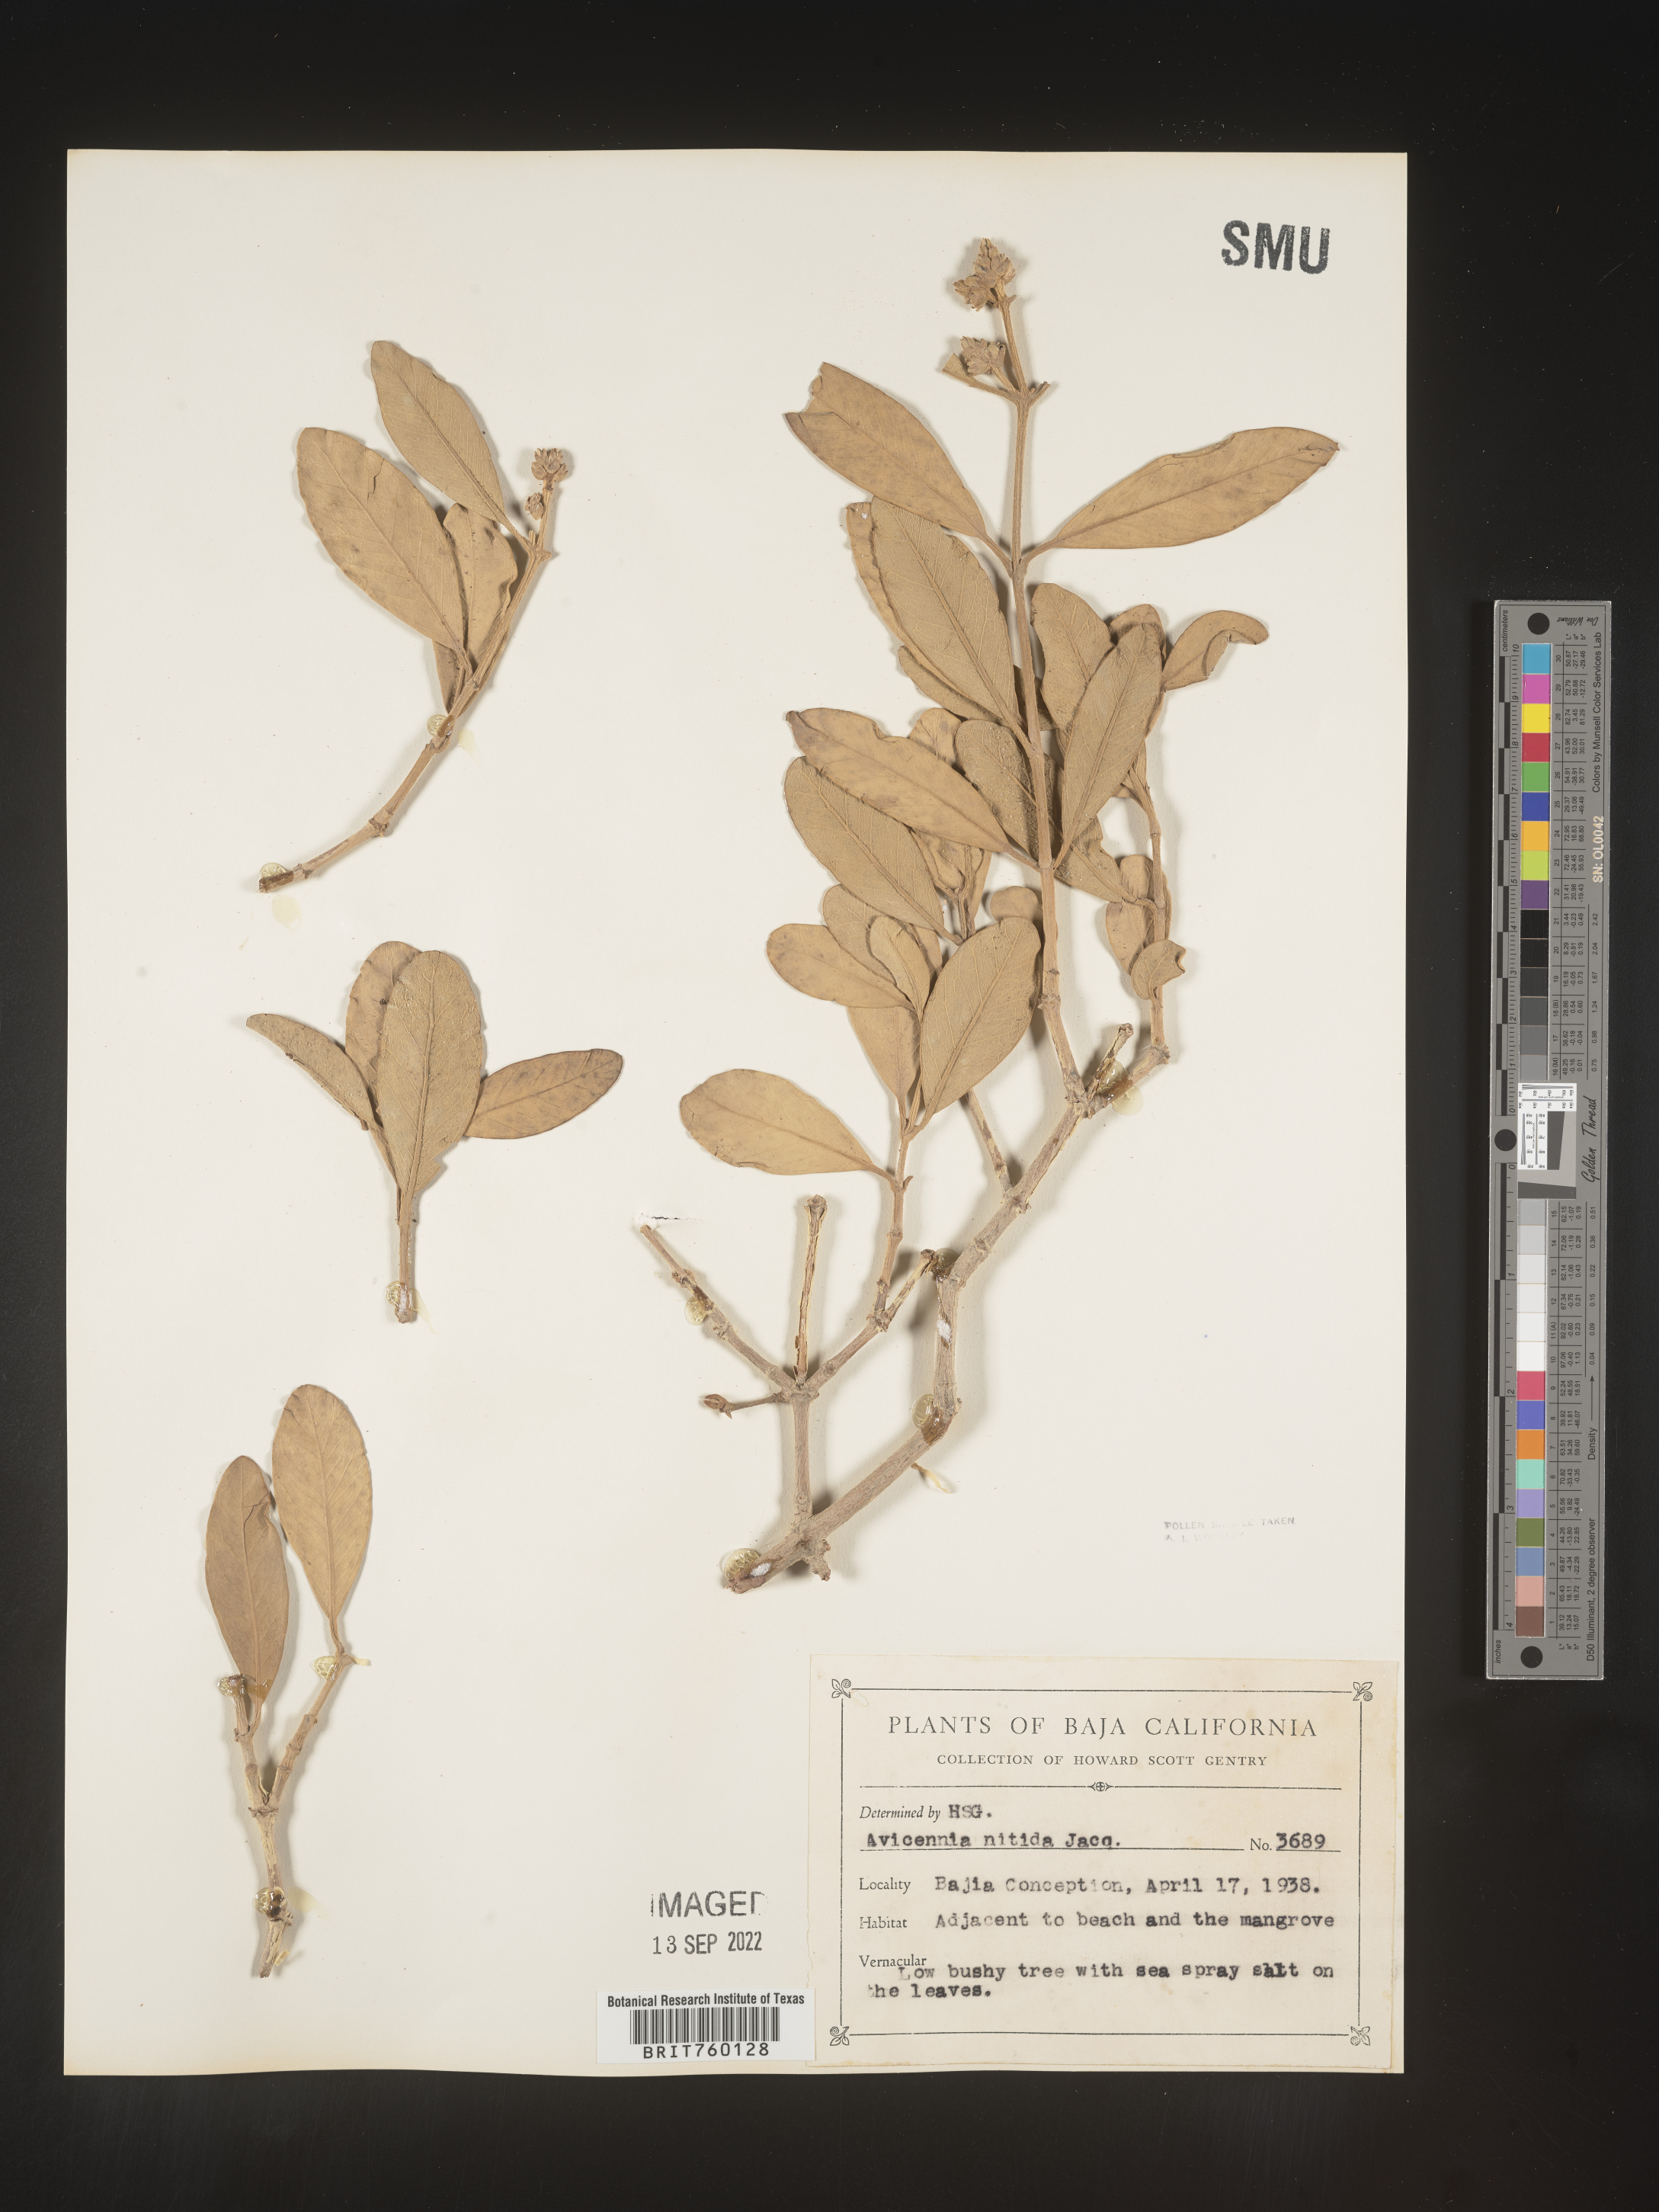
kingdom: Plantae
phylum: Tracheophyta
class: Magnoliopsida
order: Lamiales
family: Acanthaceae
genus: Avicennia
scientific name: Avicennia
